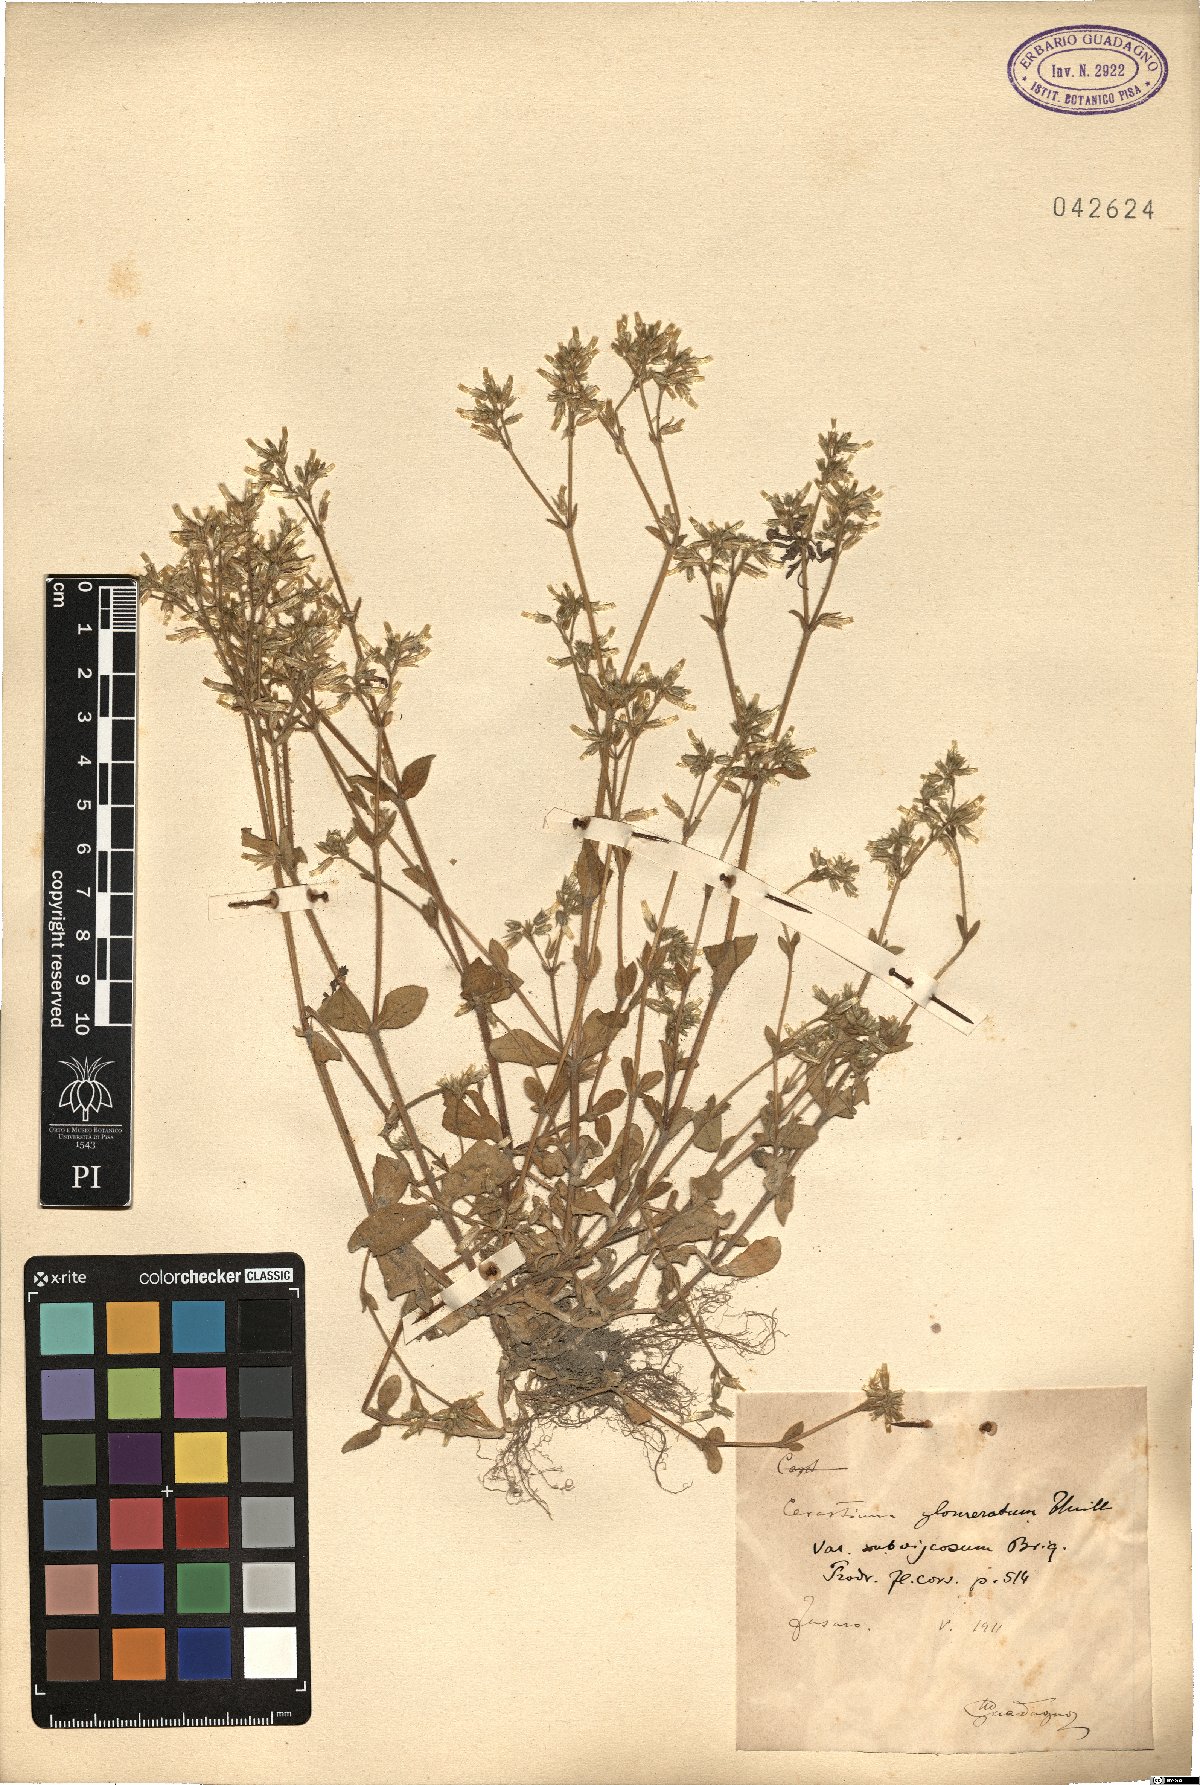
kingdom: Plantae
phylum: Tracheophyta
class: Magnoliopsida
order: Caryophyllales
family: Caryophyllaceae
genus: Cerastium
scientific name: Cerastium glomeratum
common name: Sticky chickweed
